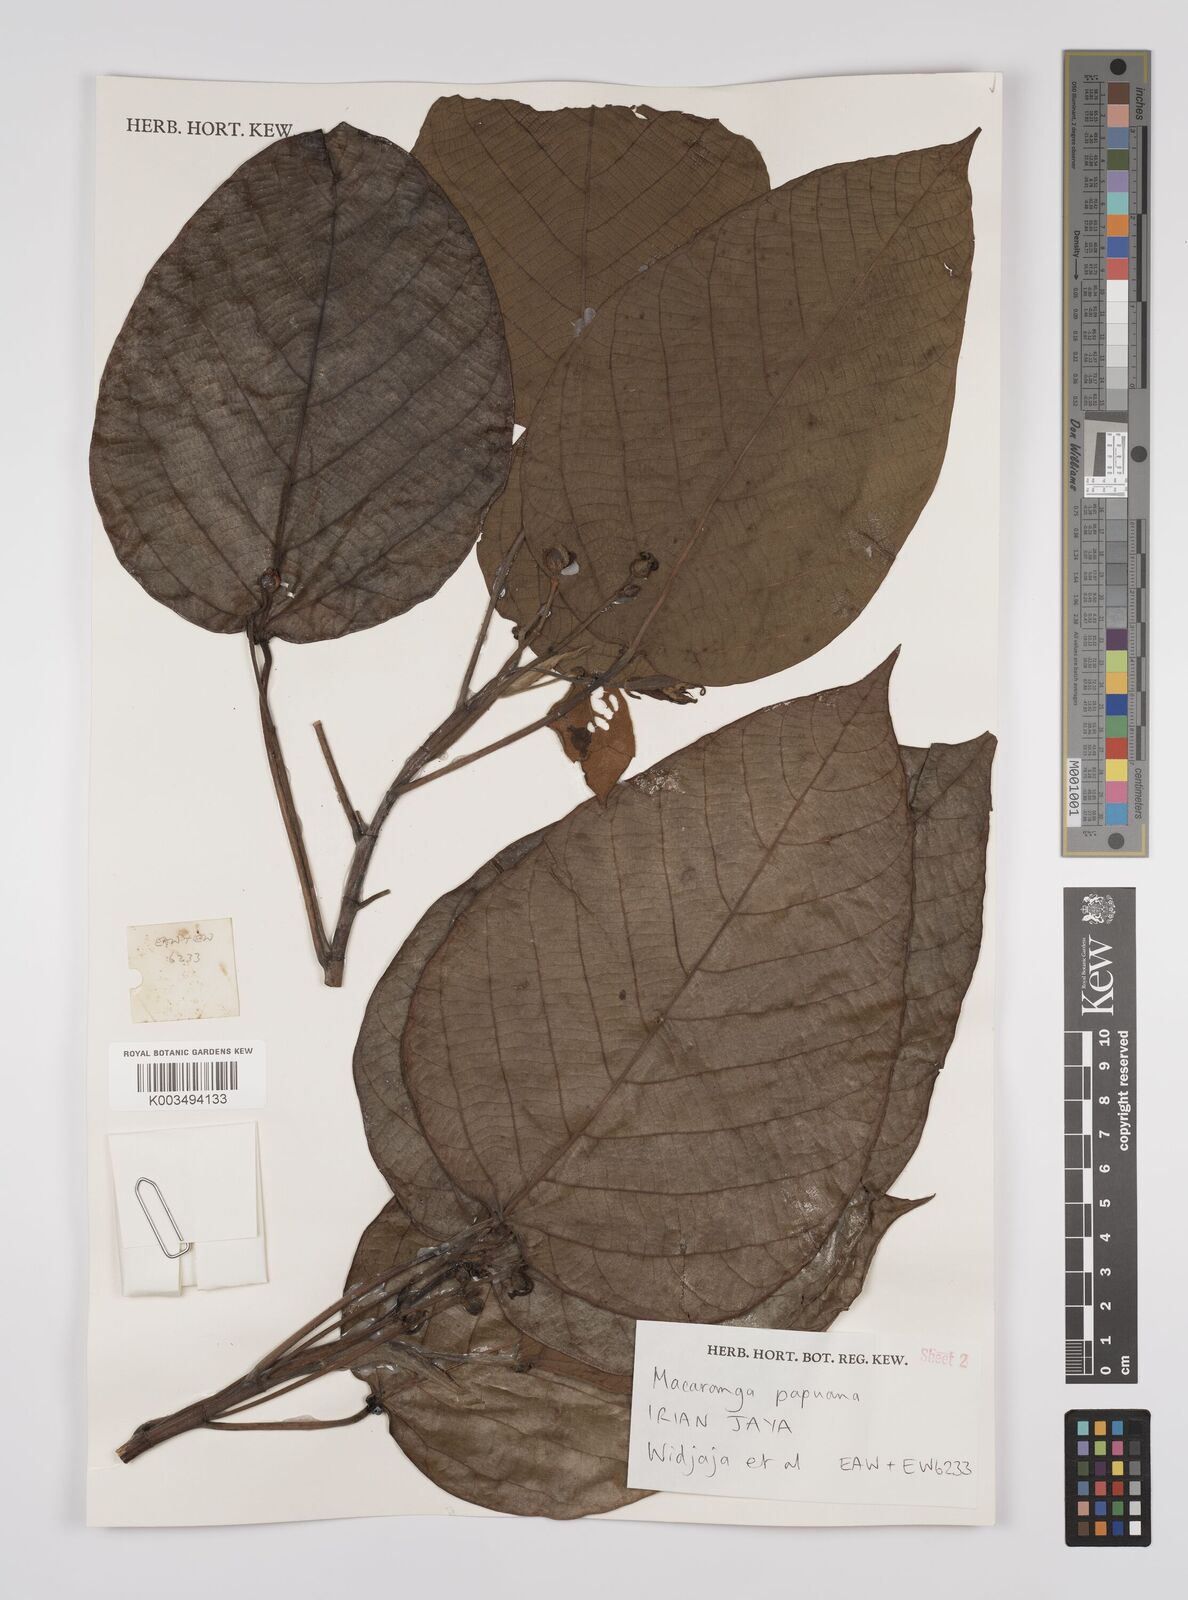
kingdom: Plantae
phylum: Tracheophyta
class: Magnoliopsida
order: Malpighiales
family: Euphorbiaceae
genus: Macaranga
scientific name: Macaranga aleuritoides
